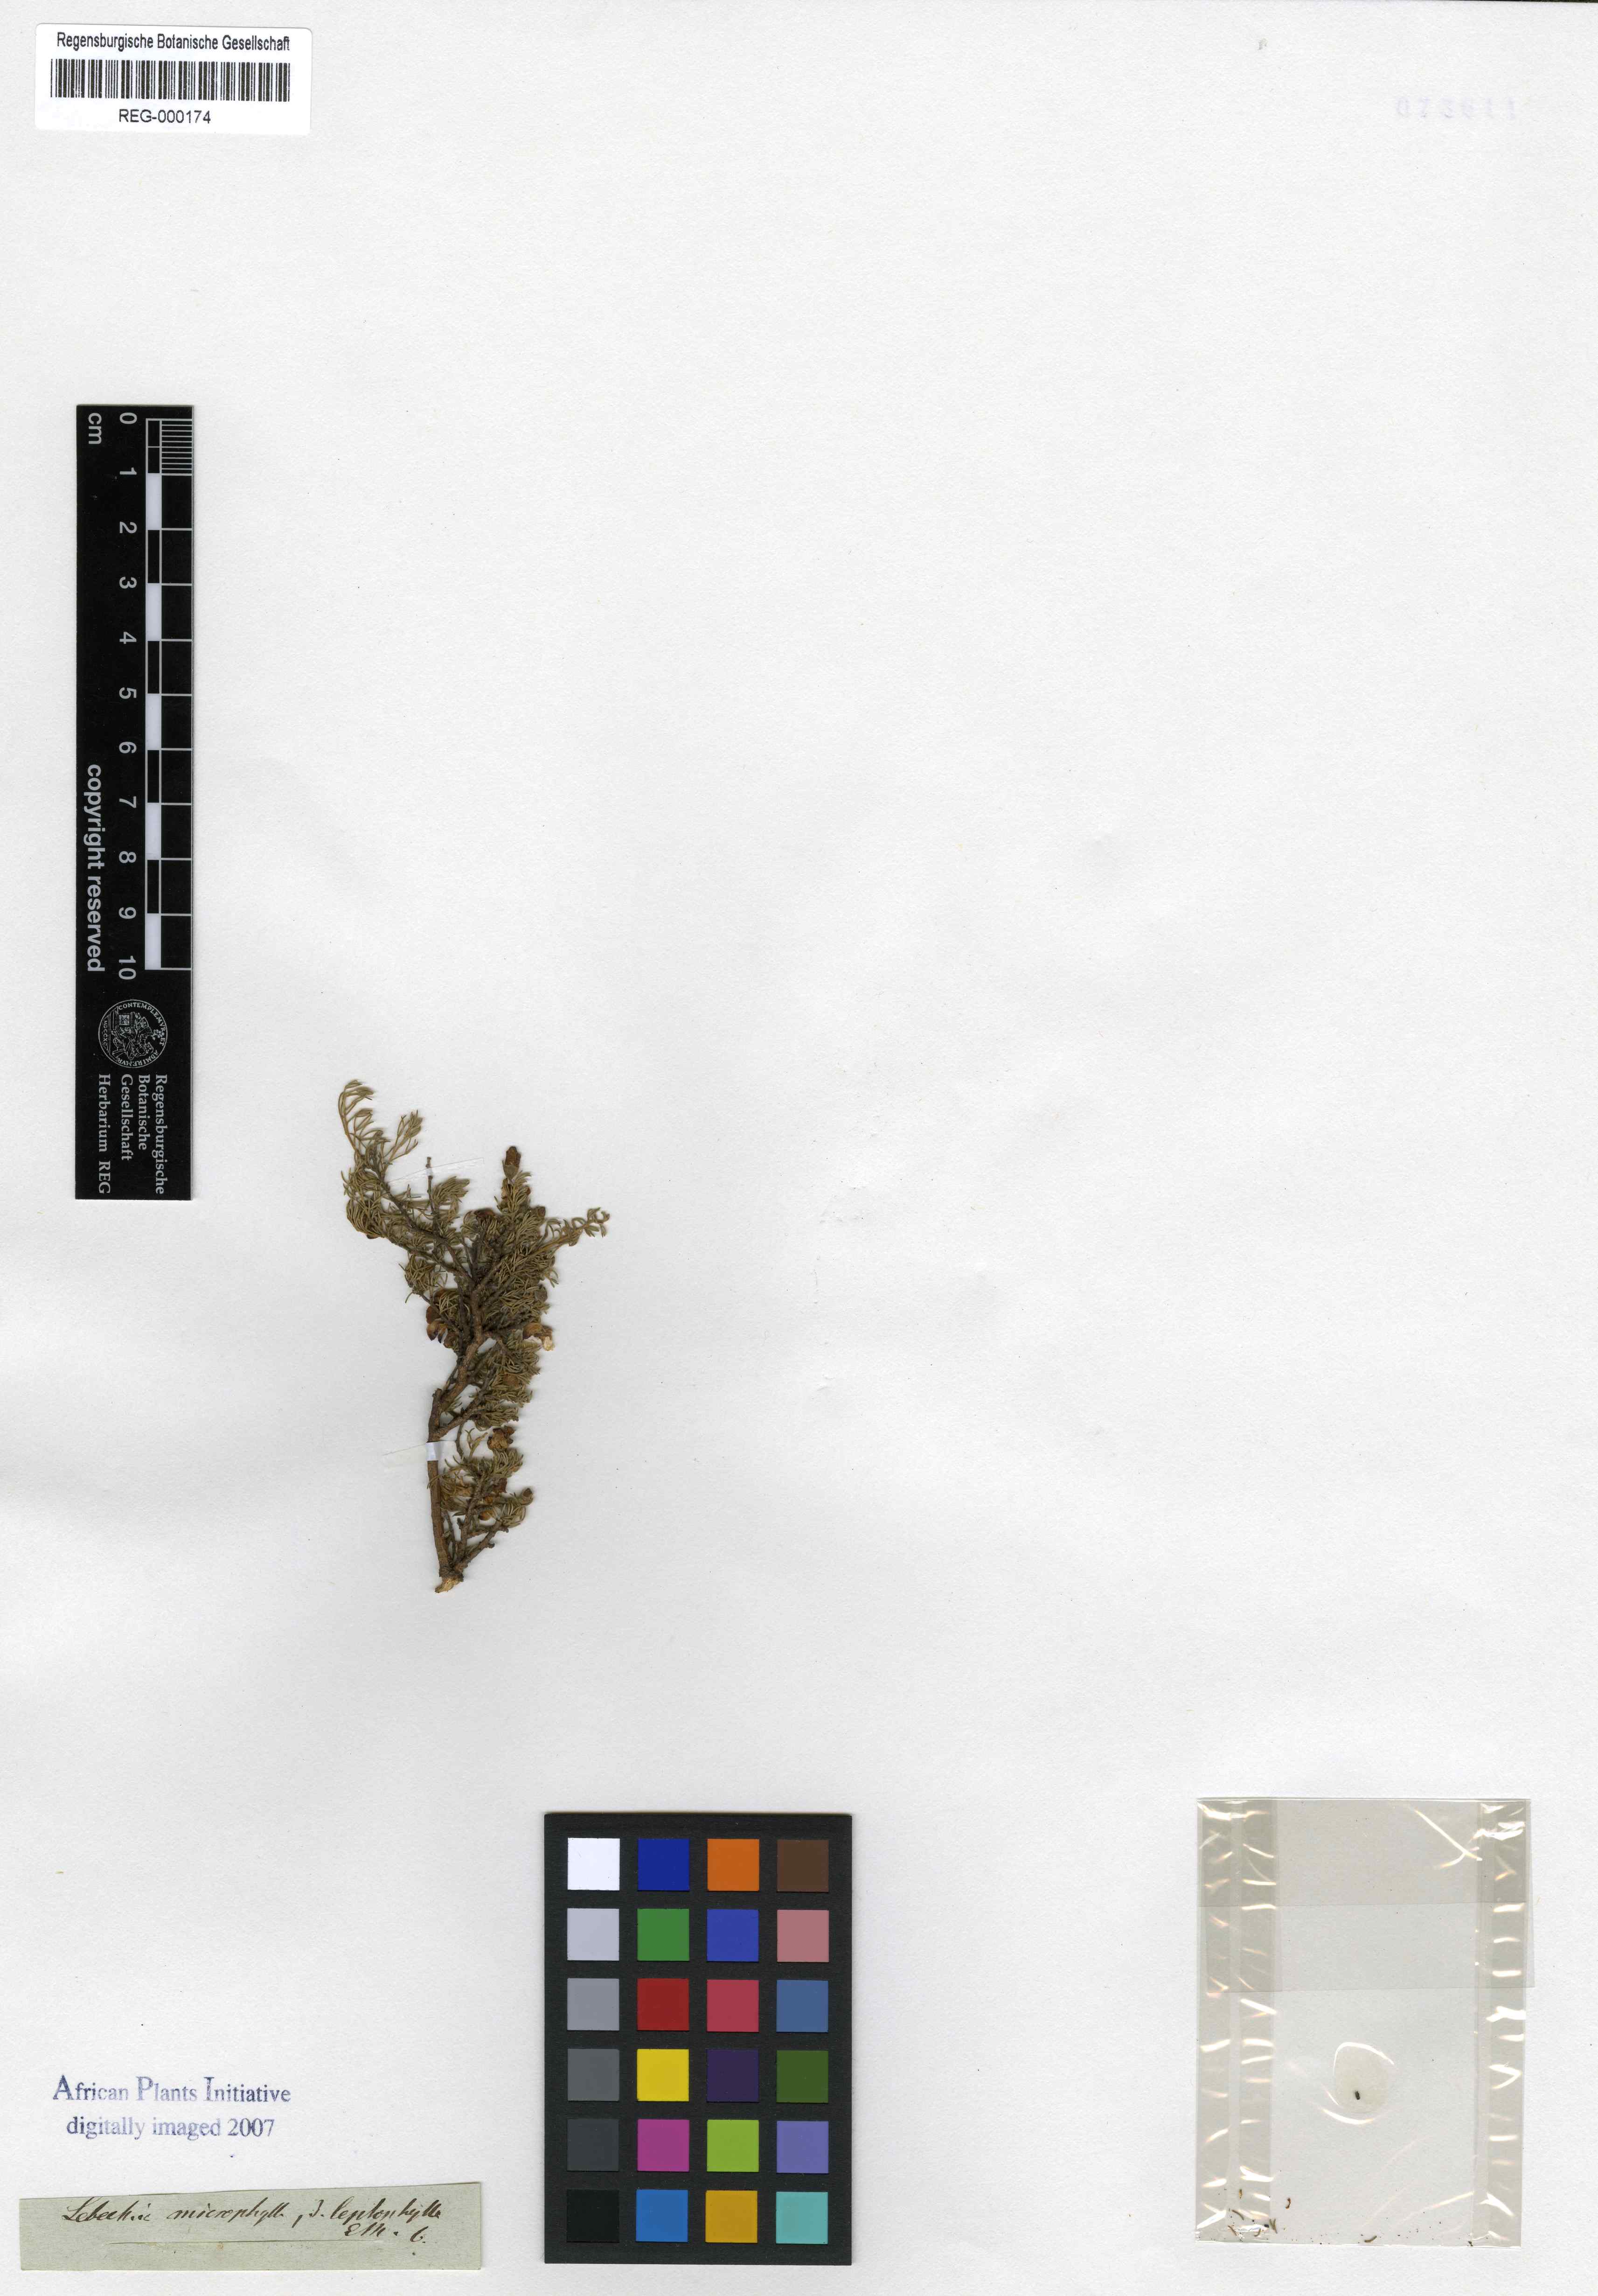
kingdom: Plantae
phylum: Tracheophyta
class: Magnoliopsida
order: Fabales
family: Fabaceae
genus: Lotononis
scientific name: Lotononis caerulescens
